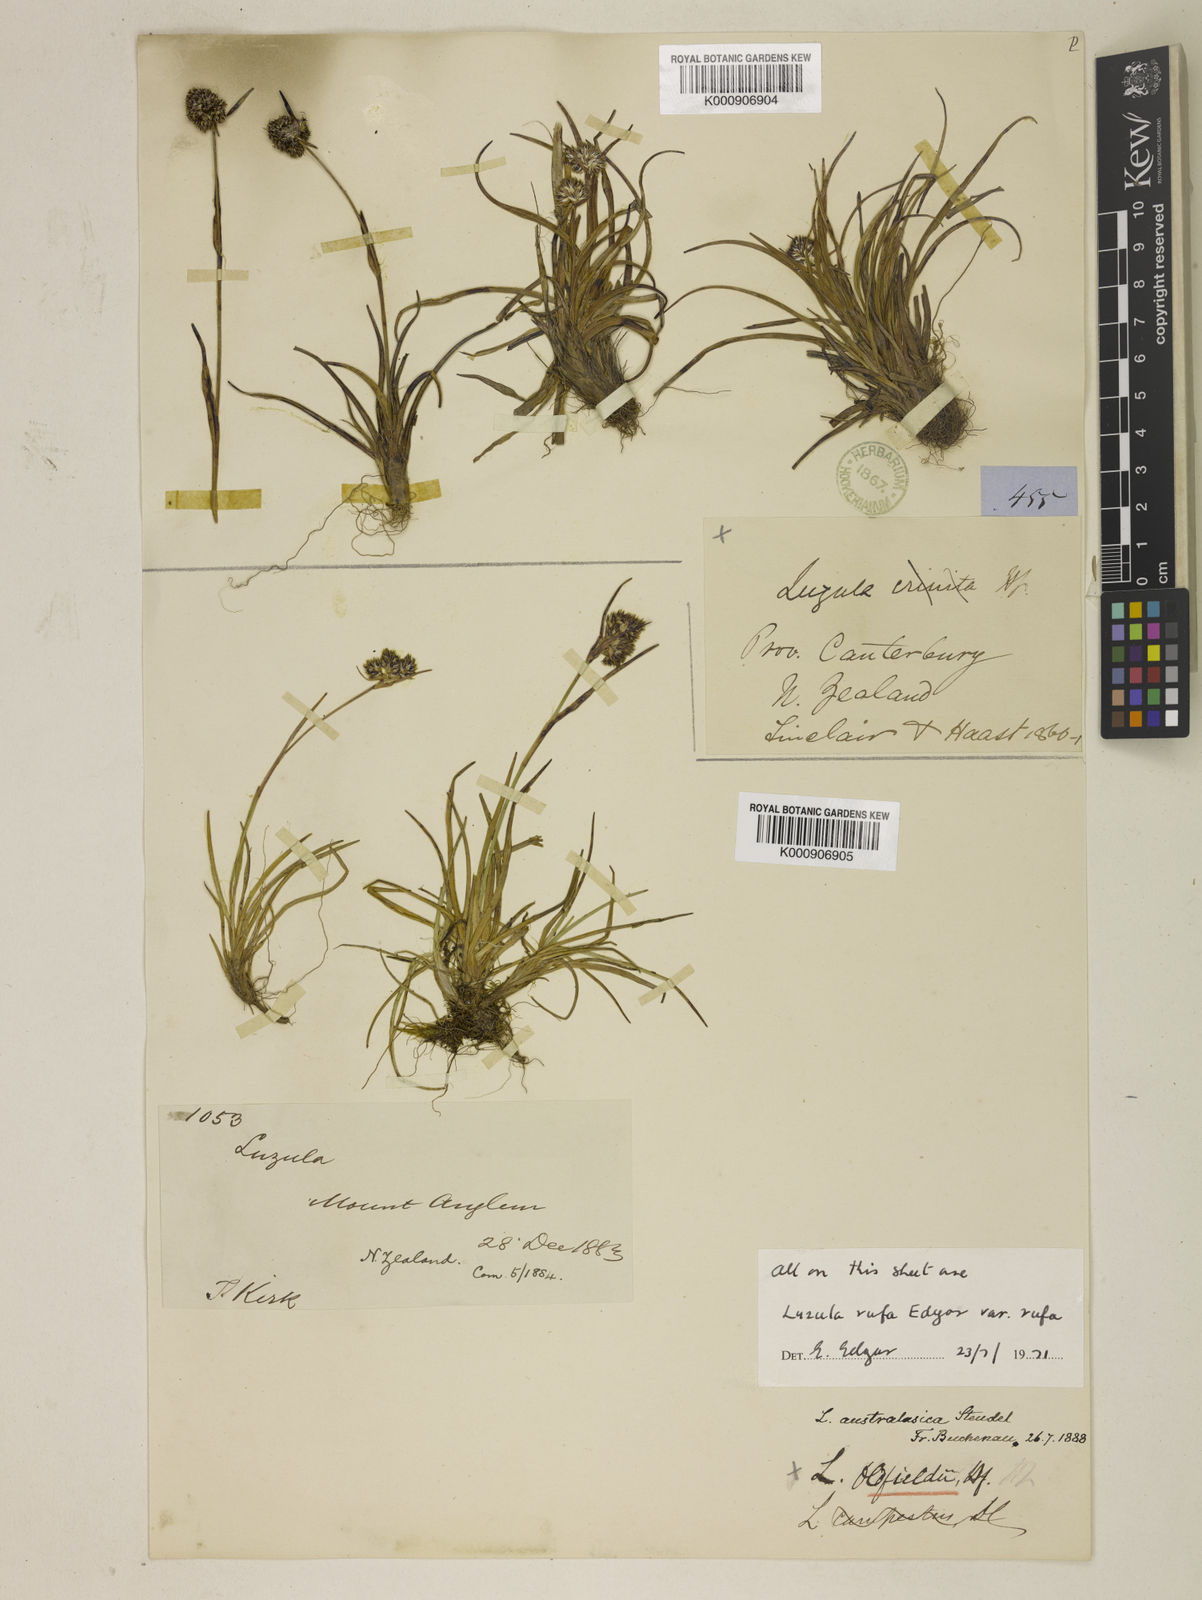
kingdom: Plantae
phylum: Tracheophyta
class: Liliopsida
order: Poales
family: Juncaceae
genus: Luzula
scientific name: Luzula australasica
